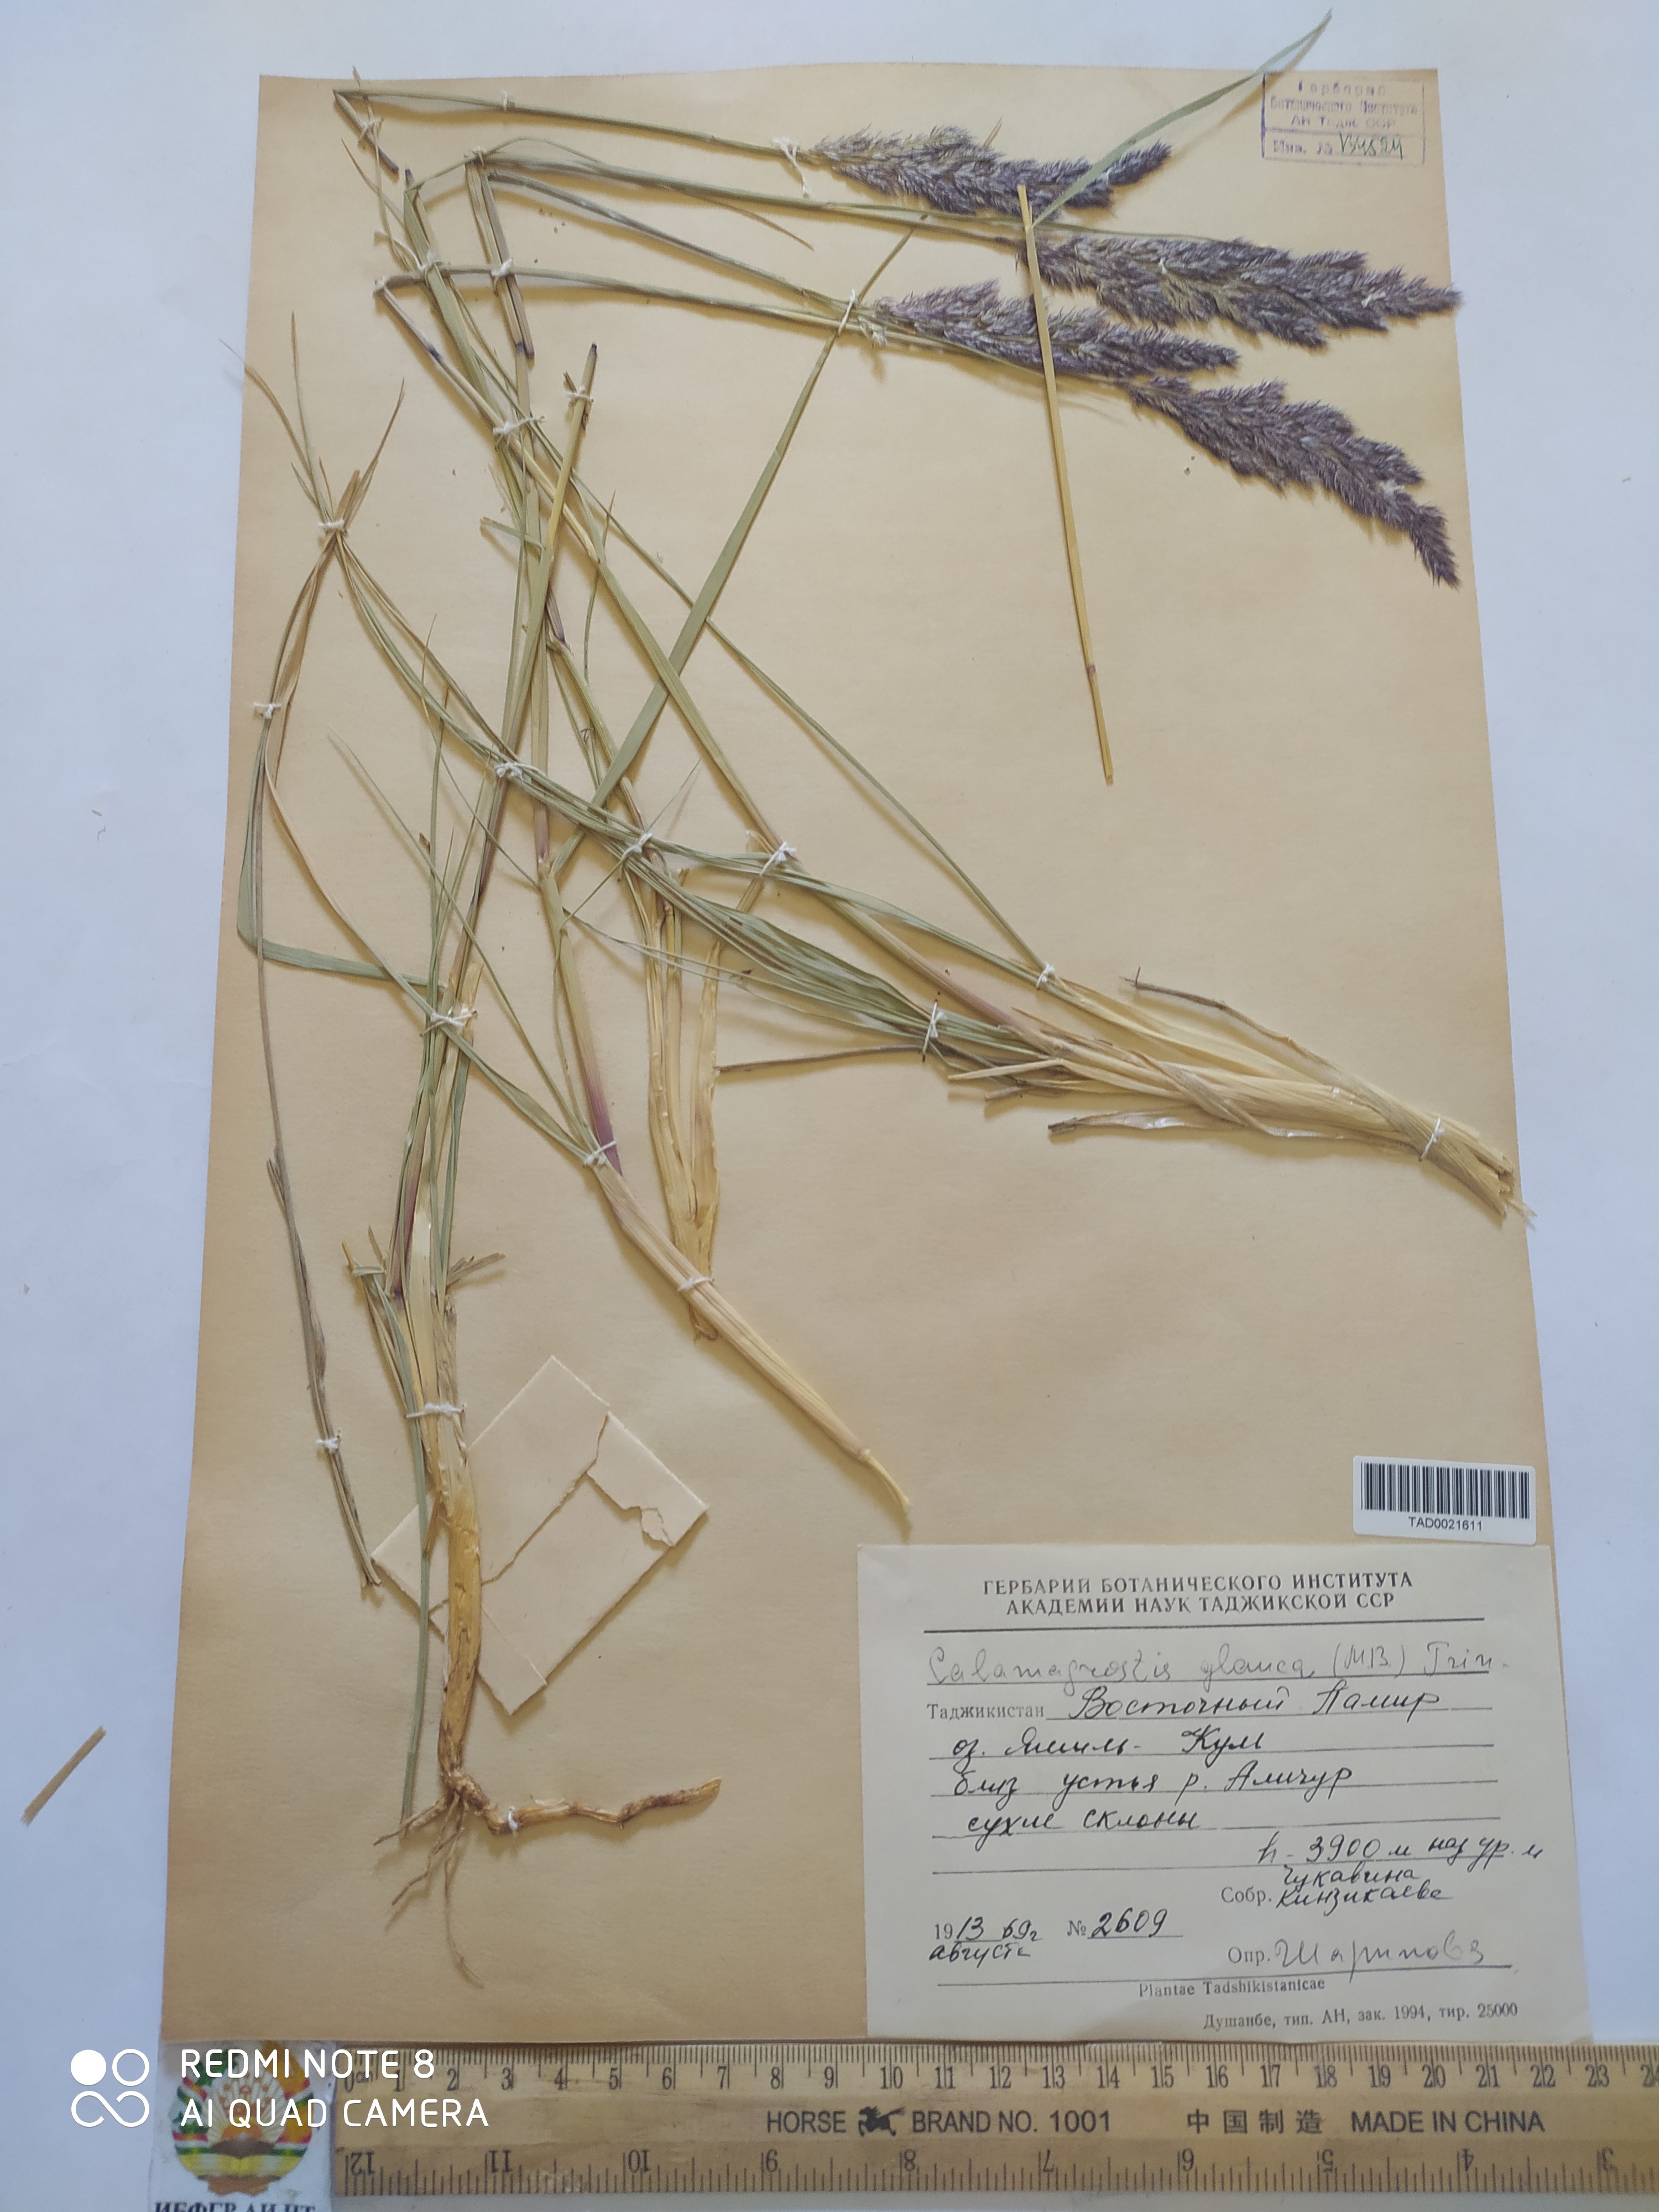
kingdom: Plantae
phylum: Tracheophyta
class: Liliopsida
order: Poales
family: Poaceae
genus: Calamagrostis
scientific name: Calamagrostis pseudophragmites
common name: Coastal small-reed
